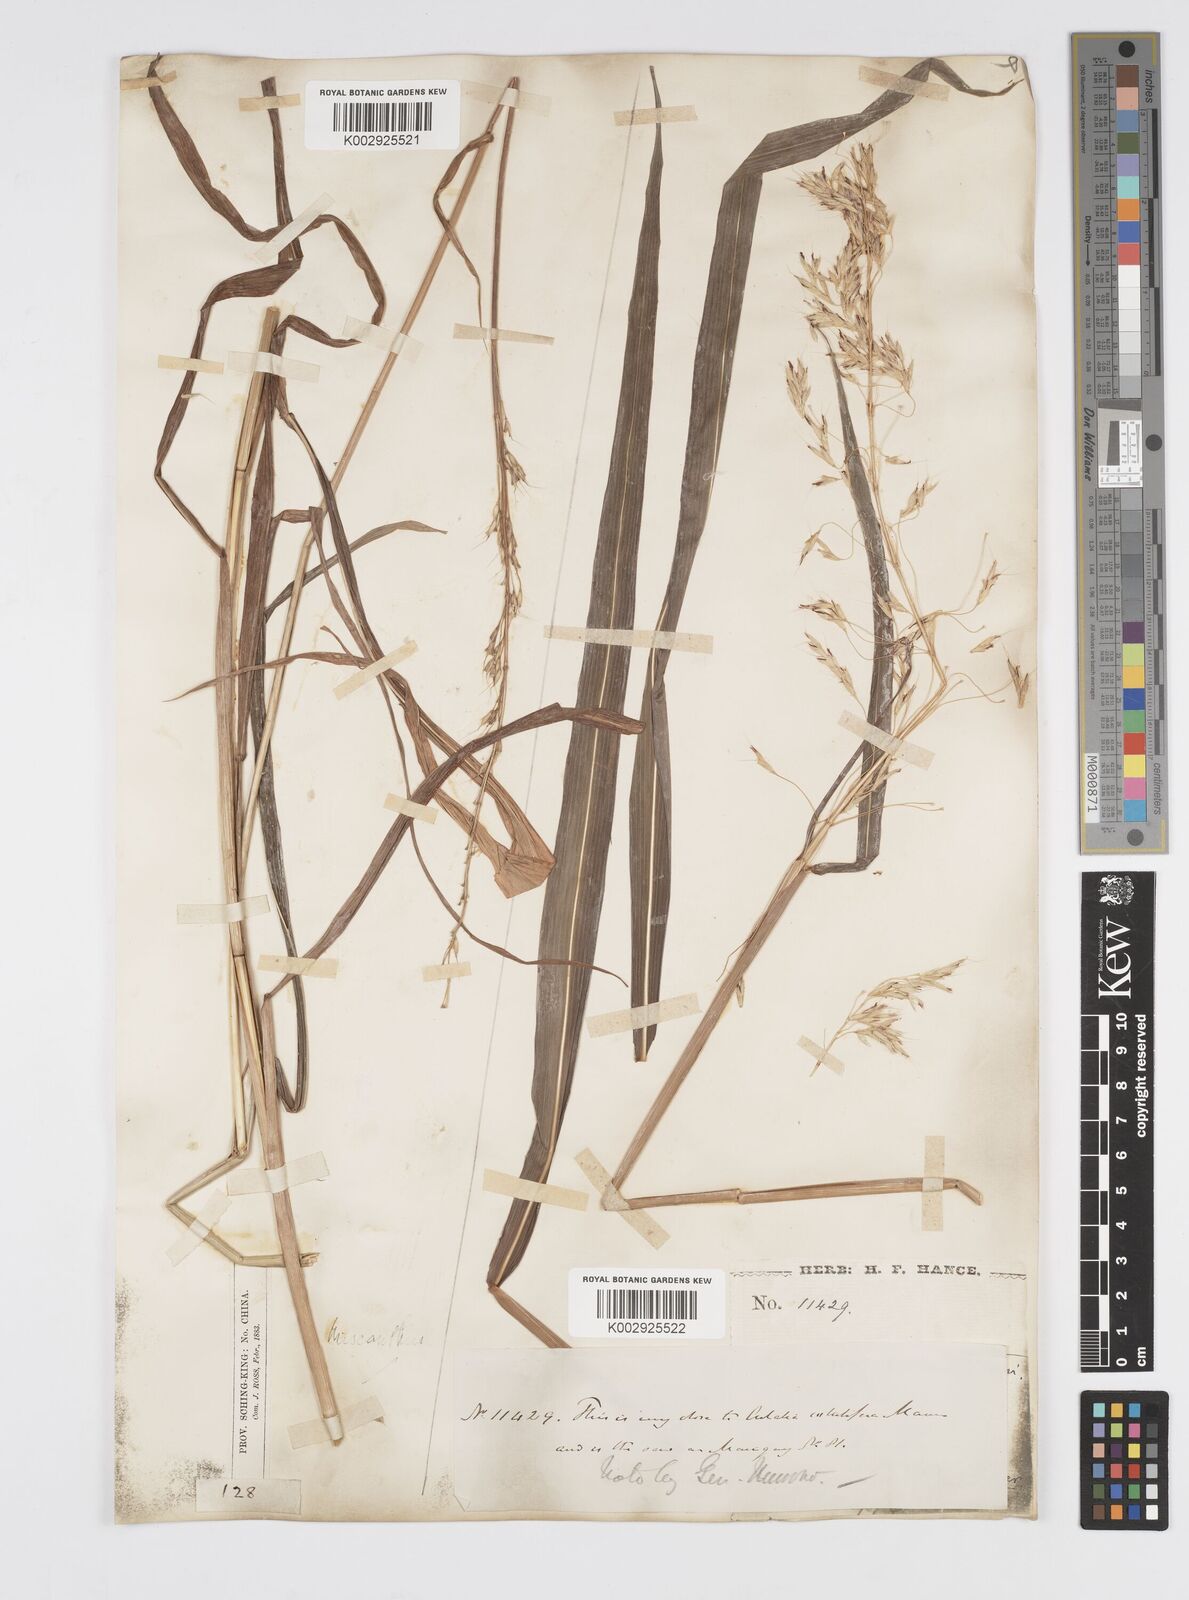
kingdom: Plantae
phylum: Tracheophyta
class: Liliopsida
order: Poales
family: Poaceae
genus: Spodiopogon
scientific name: Spodiopogon sibiricus
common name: Siberian graybeard
